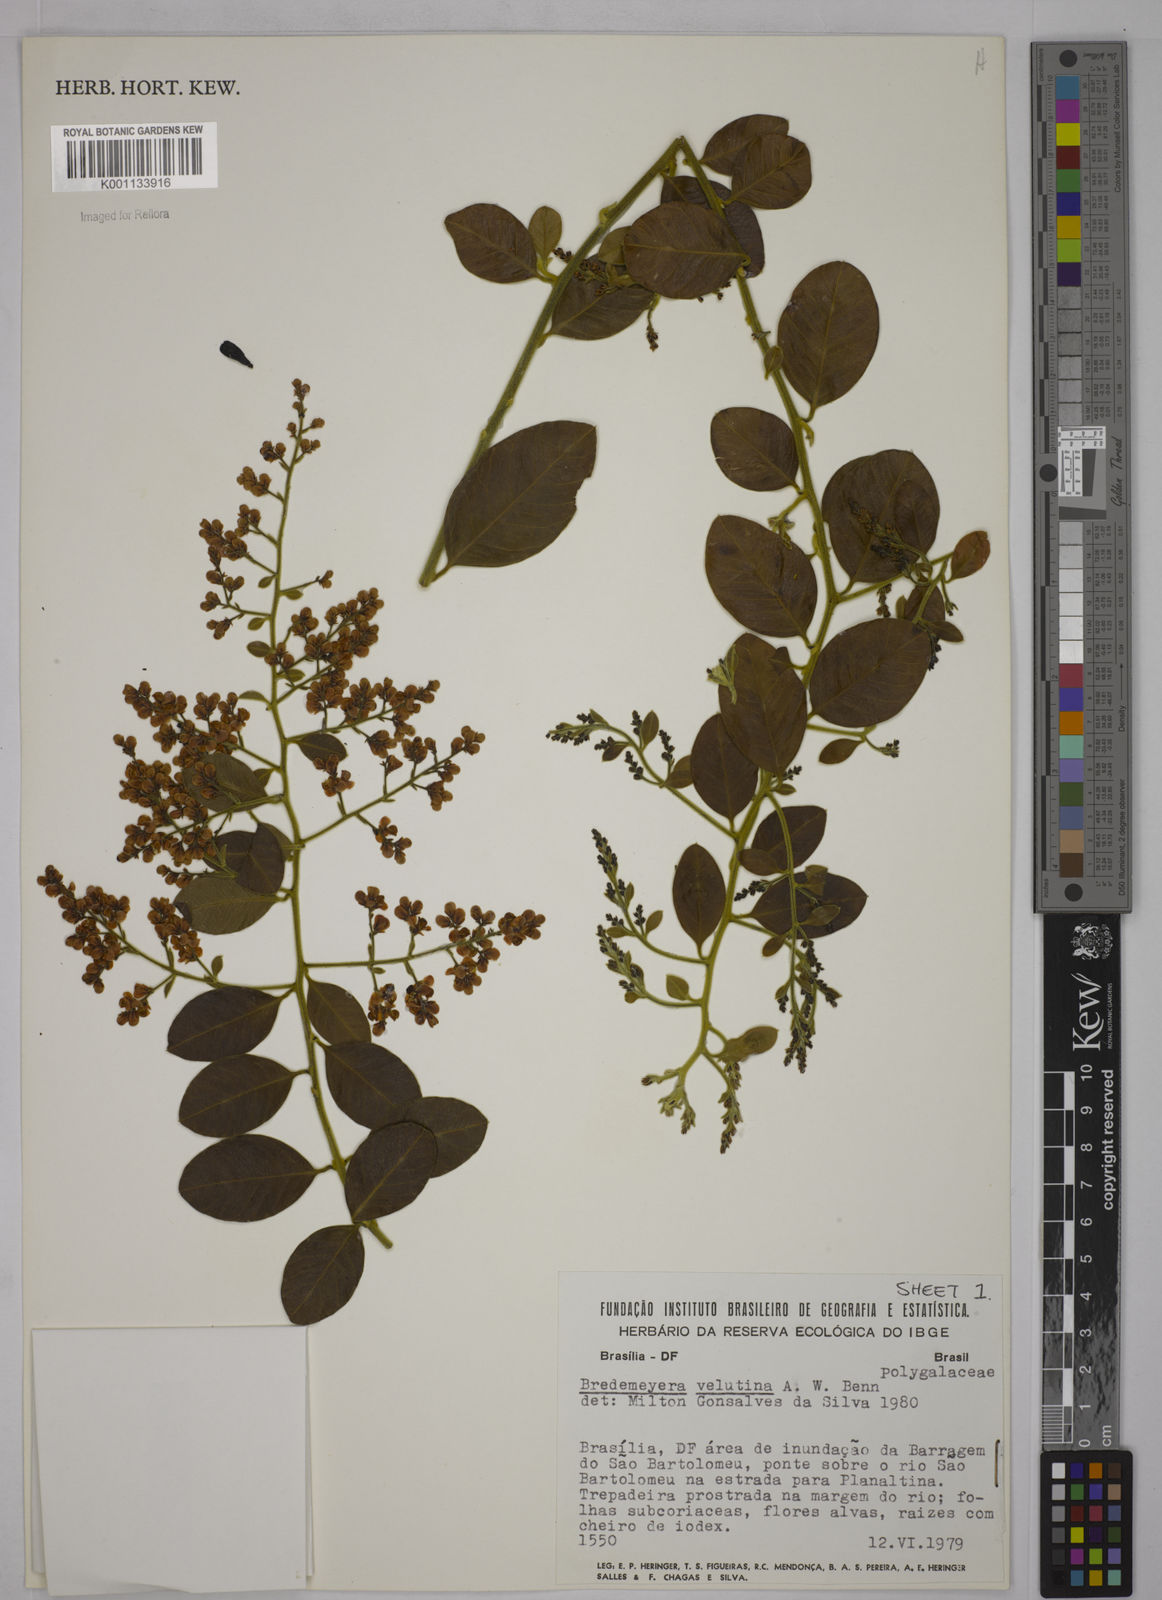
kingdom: Plantae
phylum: Tracheophyta
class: Magnoliopsida
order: Fabales
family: Polygalaceae
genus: Bredemeyera
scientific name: Bredemeyera hebeclada
